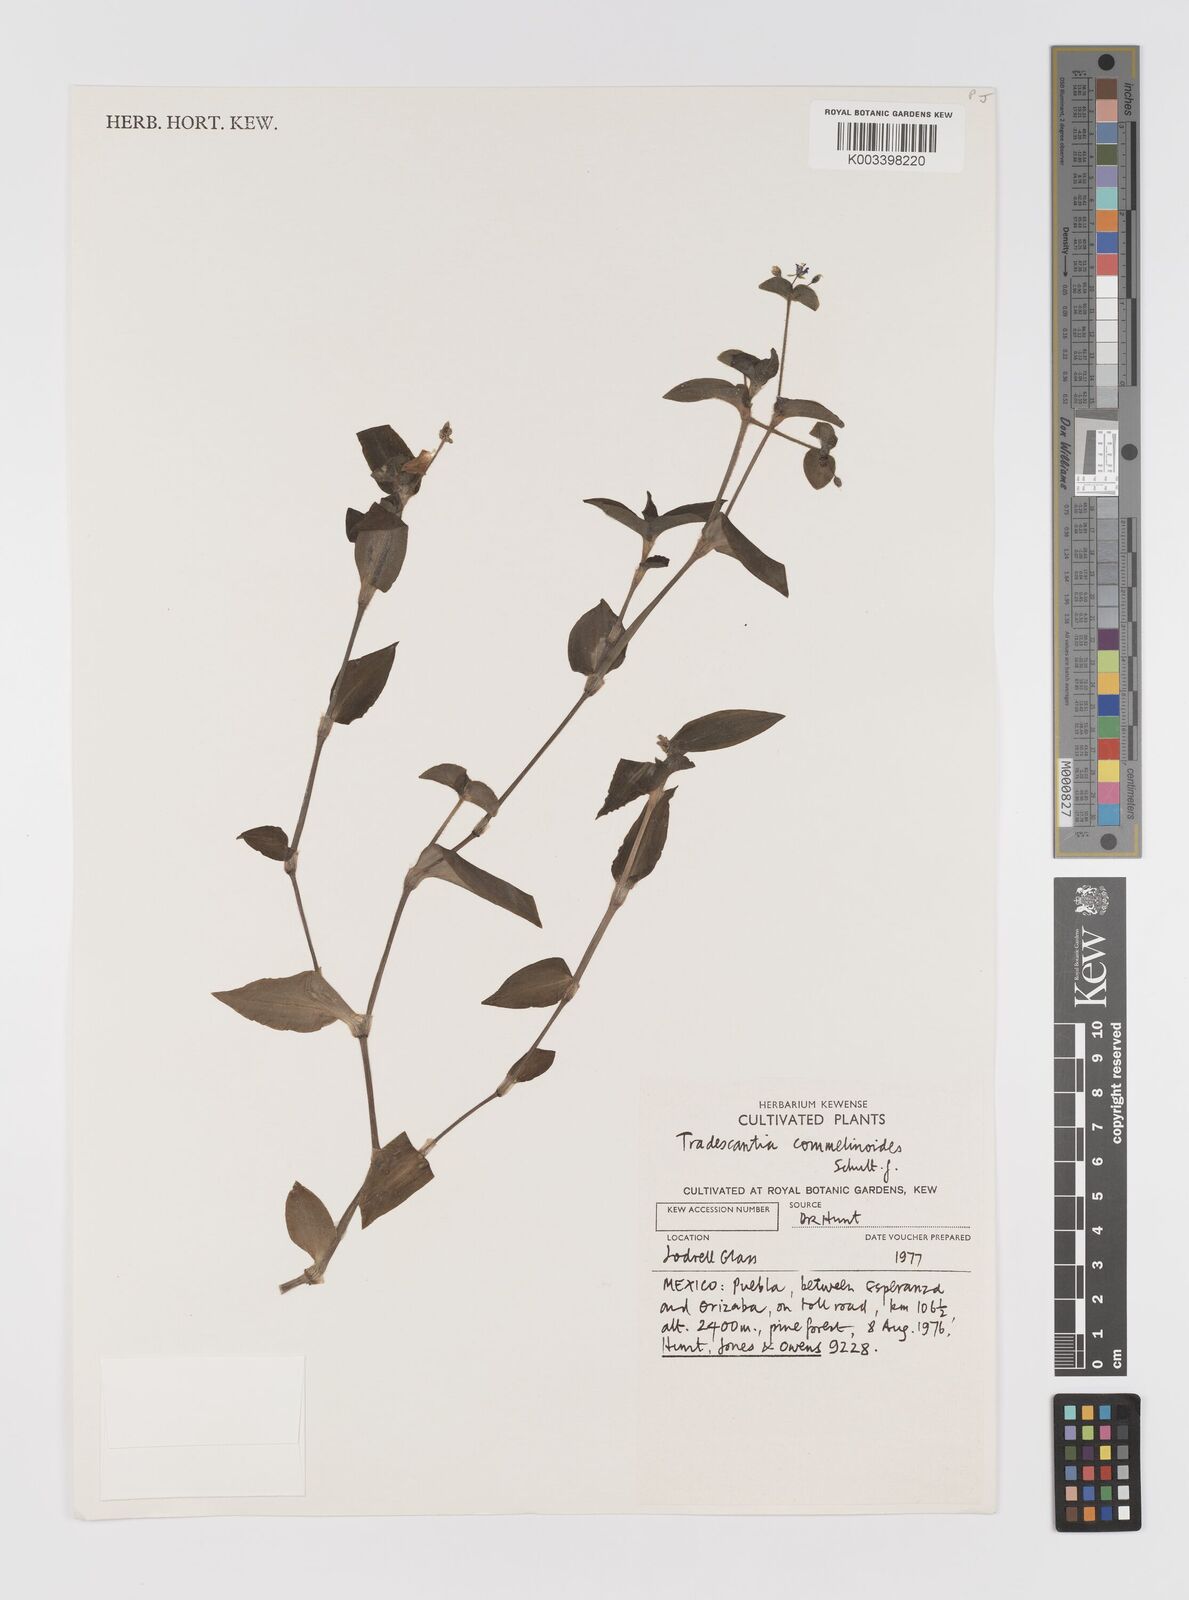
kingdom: Plantae
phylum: Tracheophyta
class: Liliopsida
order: Commelinales
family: Commelinaceae
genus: Tradescantia
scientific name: Tradescantia commelinoides
